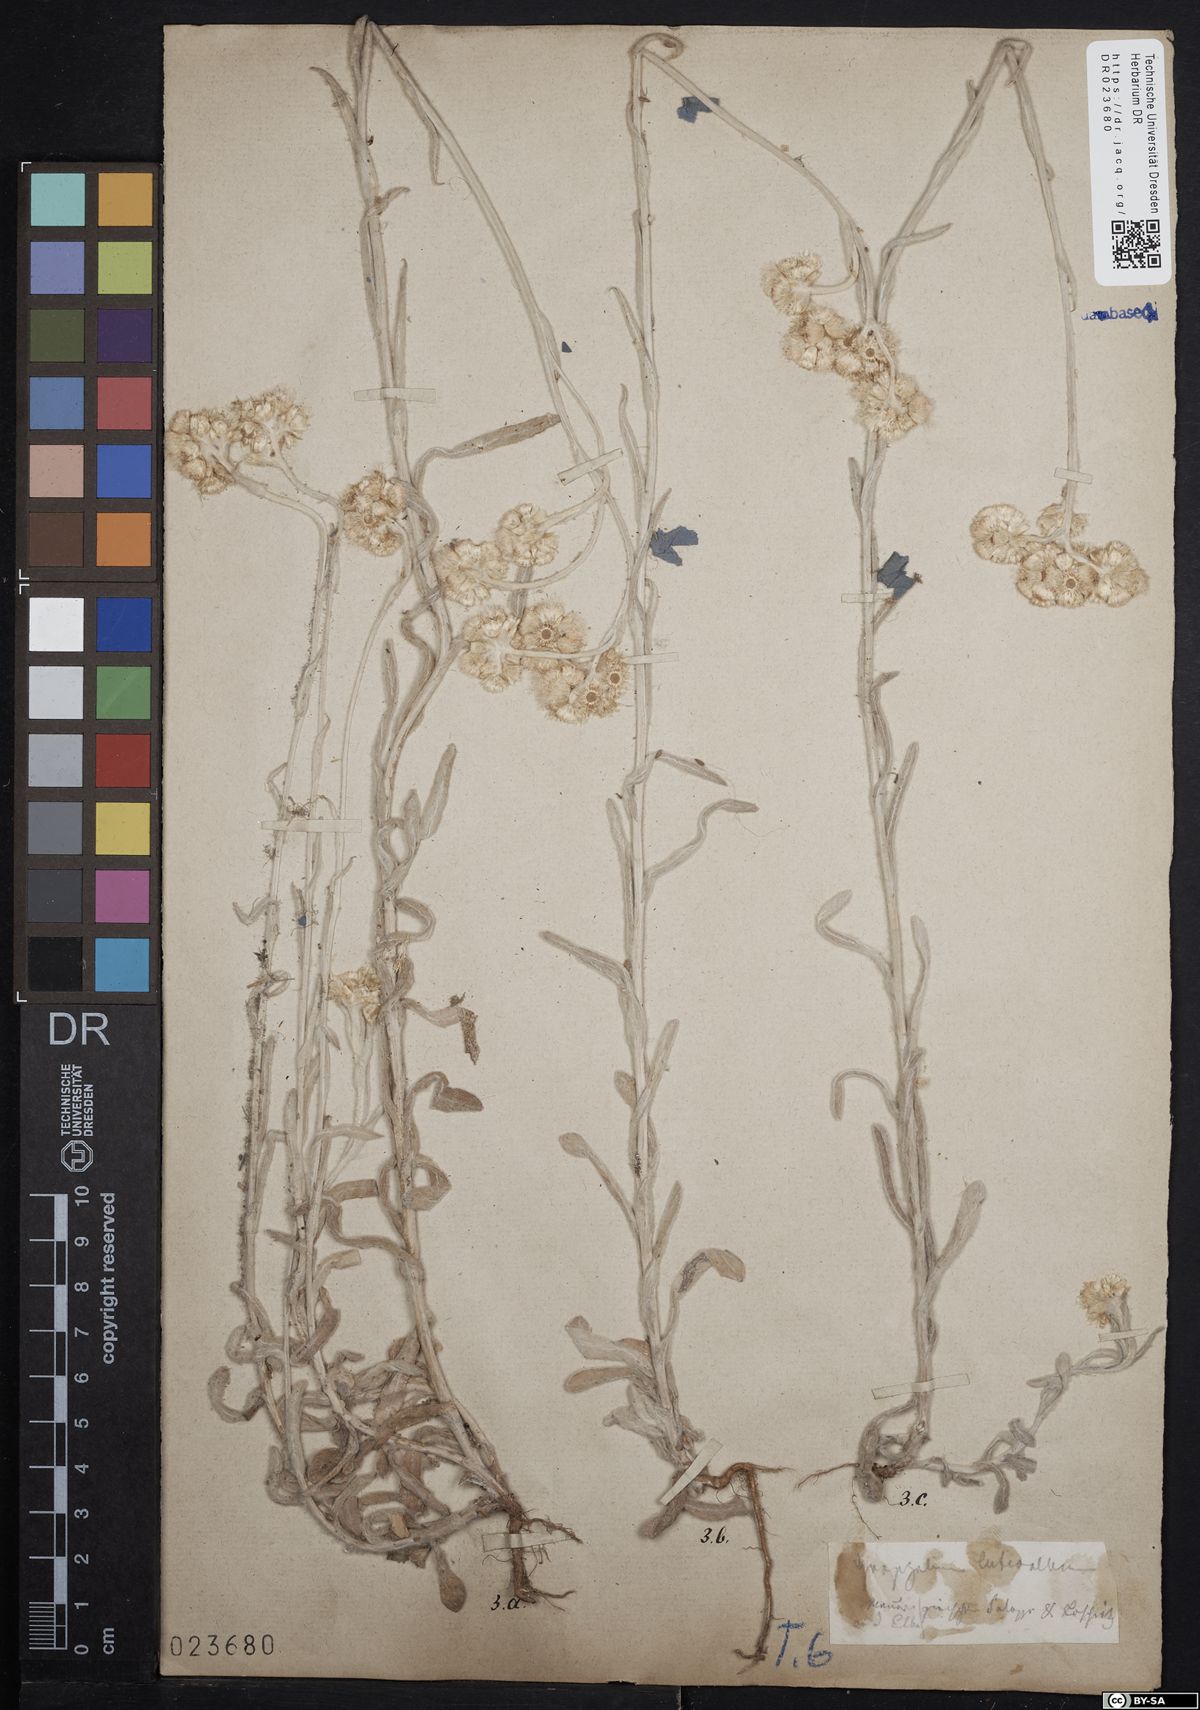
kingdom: Plantae
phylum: Tracheophyta
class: Magnoliopsida
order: Asterales
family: Asteraceae
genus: Helichrysum
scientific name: Helichrysum luteoalbum
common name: Daisy
